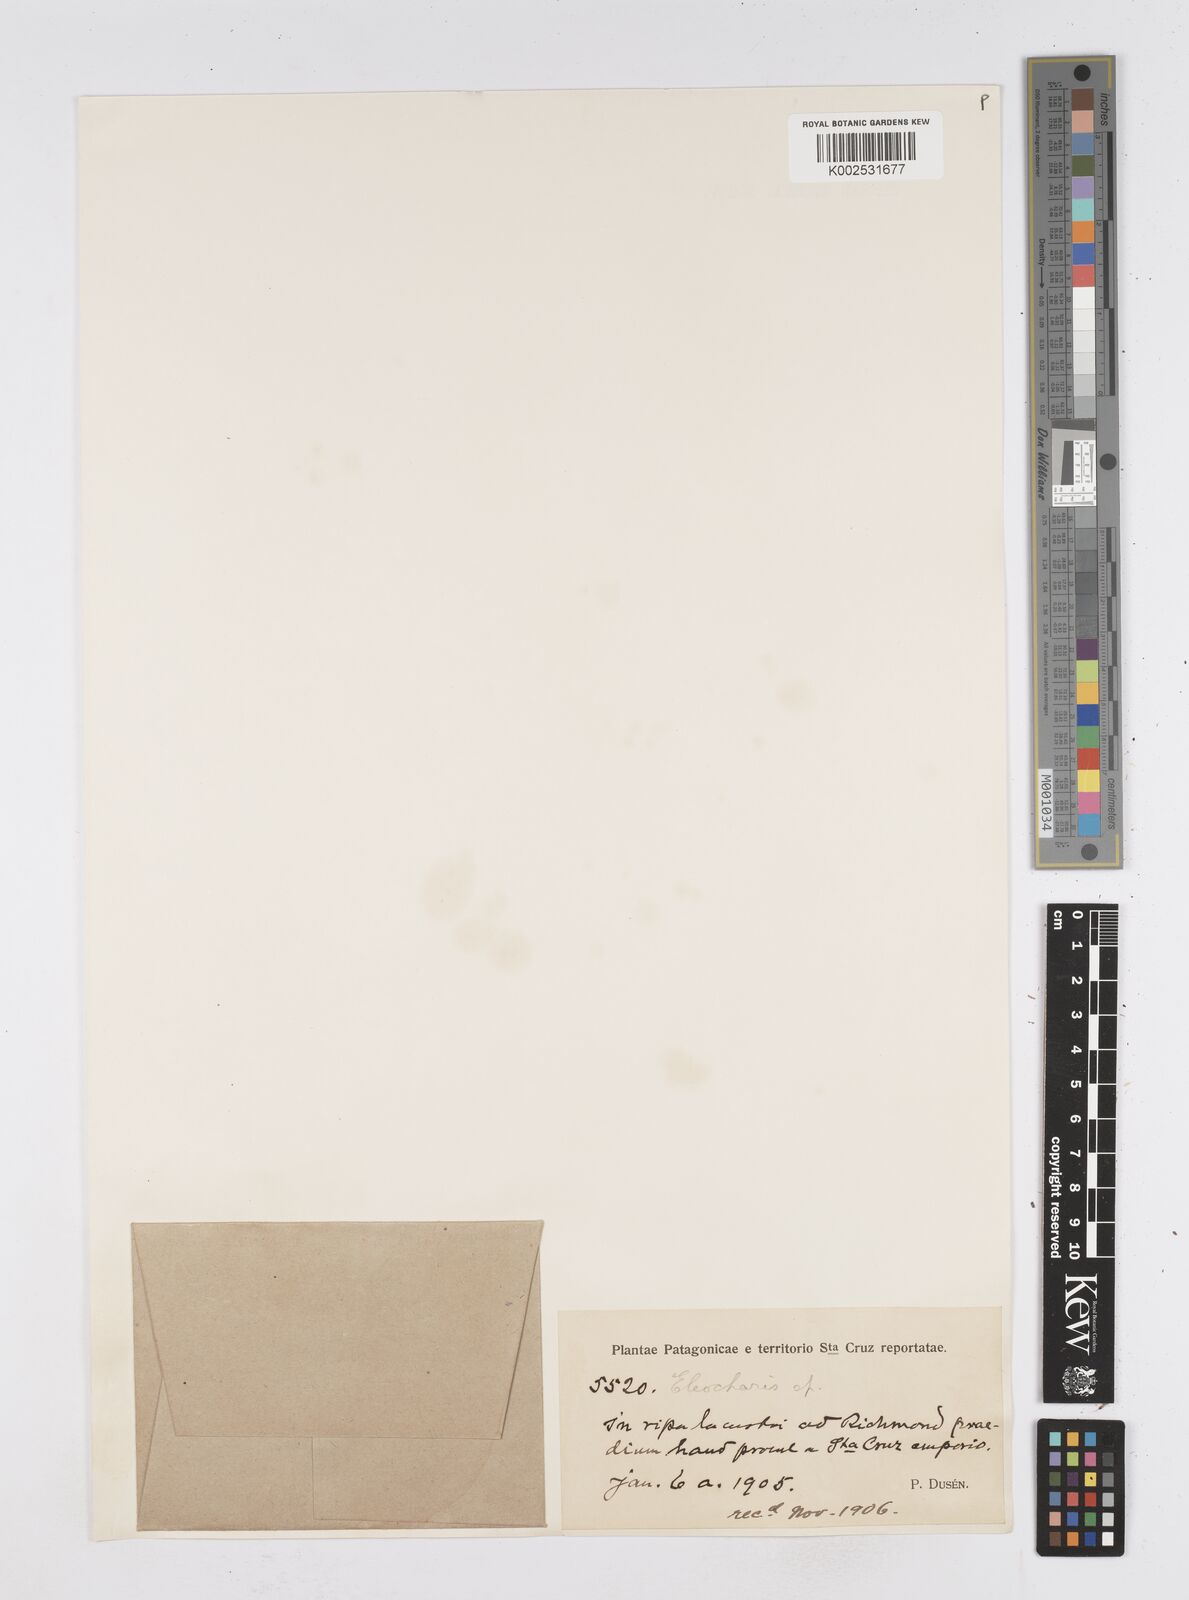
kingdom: Plantae
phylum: Tracheophyta
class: Liliopsida
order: Poales
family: Cyperaceae
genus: Eleocharis
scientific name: Eleocharis
